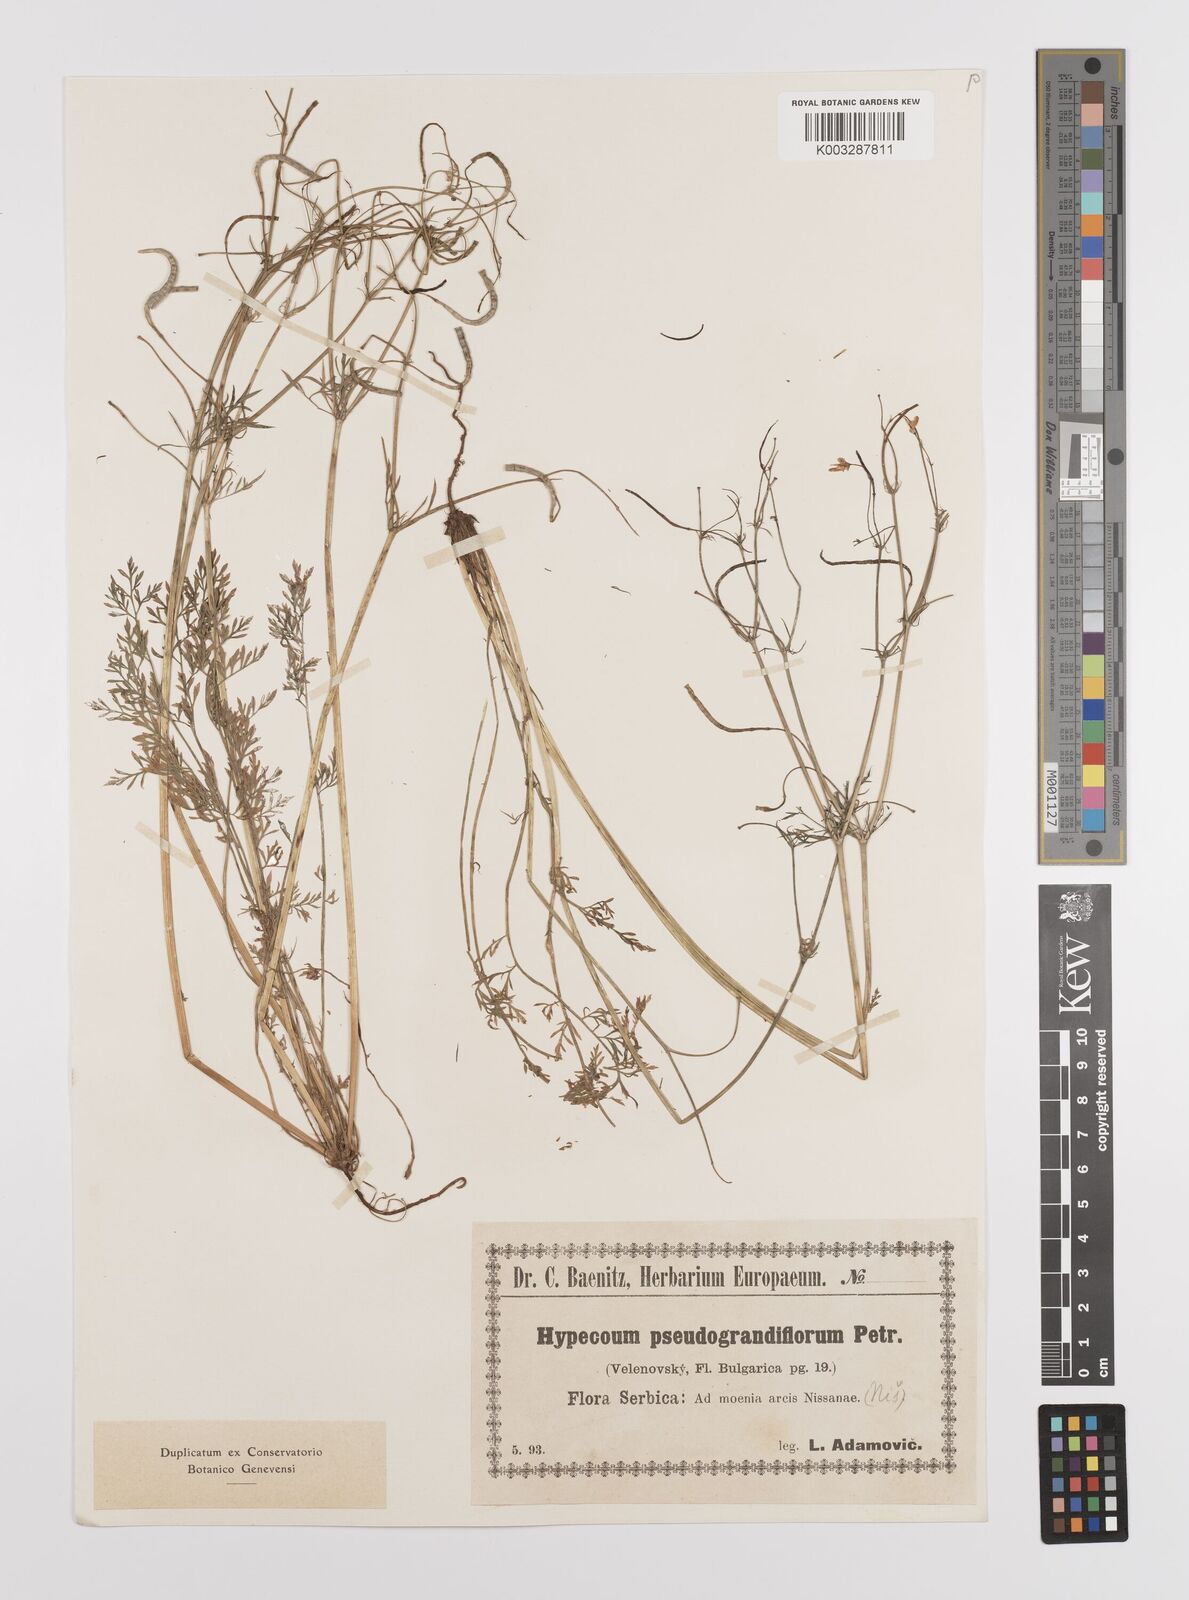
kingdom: Plantae
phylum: Tracheophyta
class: Magnoliopsida
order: Ranunculales
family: Papaveraceae
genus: Hypecoum
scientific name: Hypecoum imberbe
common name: Sicklefruit hypecoum
